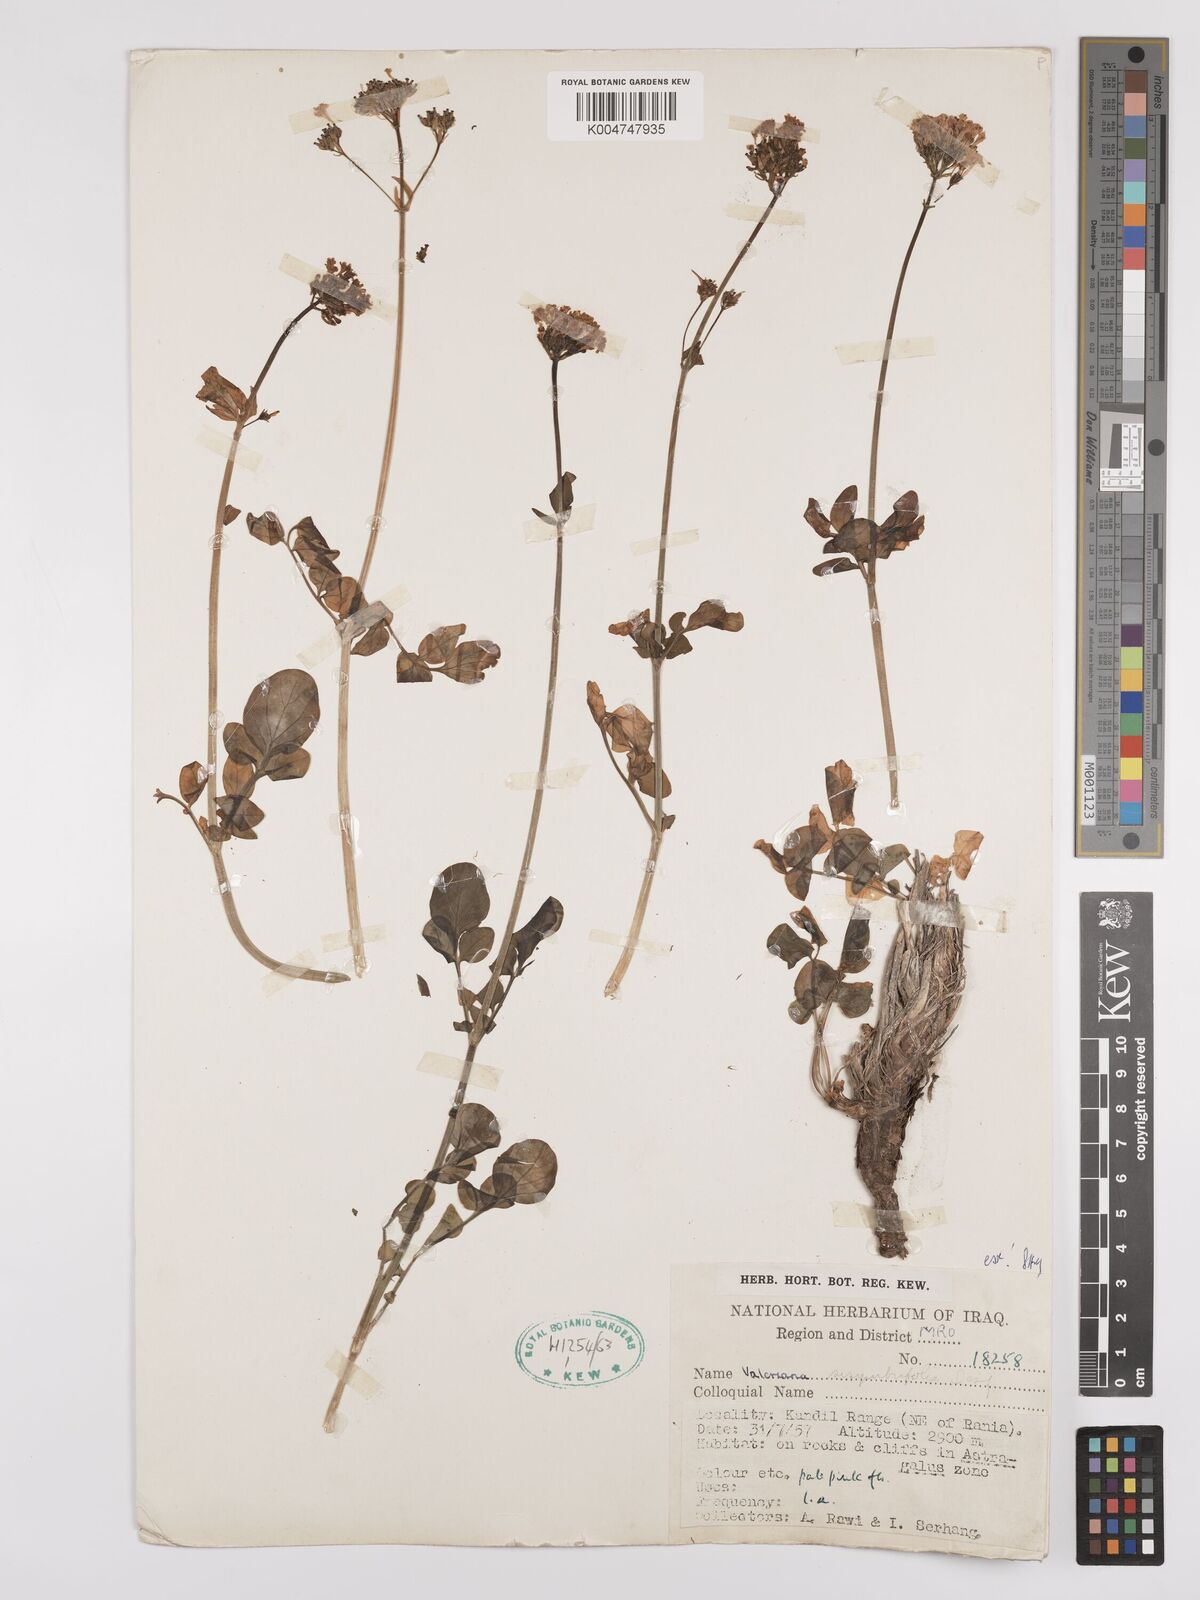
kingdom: Plantae
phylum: Tracheophyta
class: Magnoliopsida
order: Dipsacales
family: Caprifoliaceae
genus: Valeriana
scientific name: Valeriana
